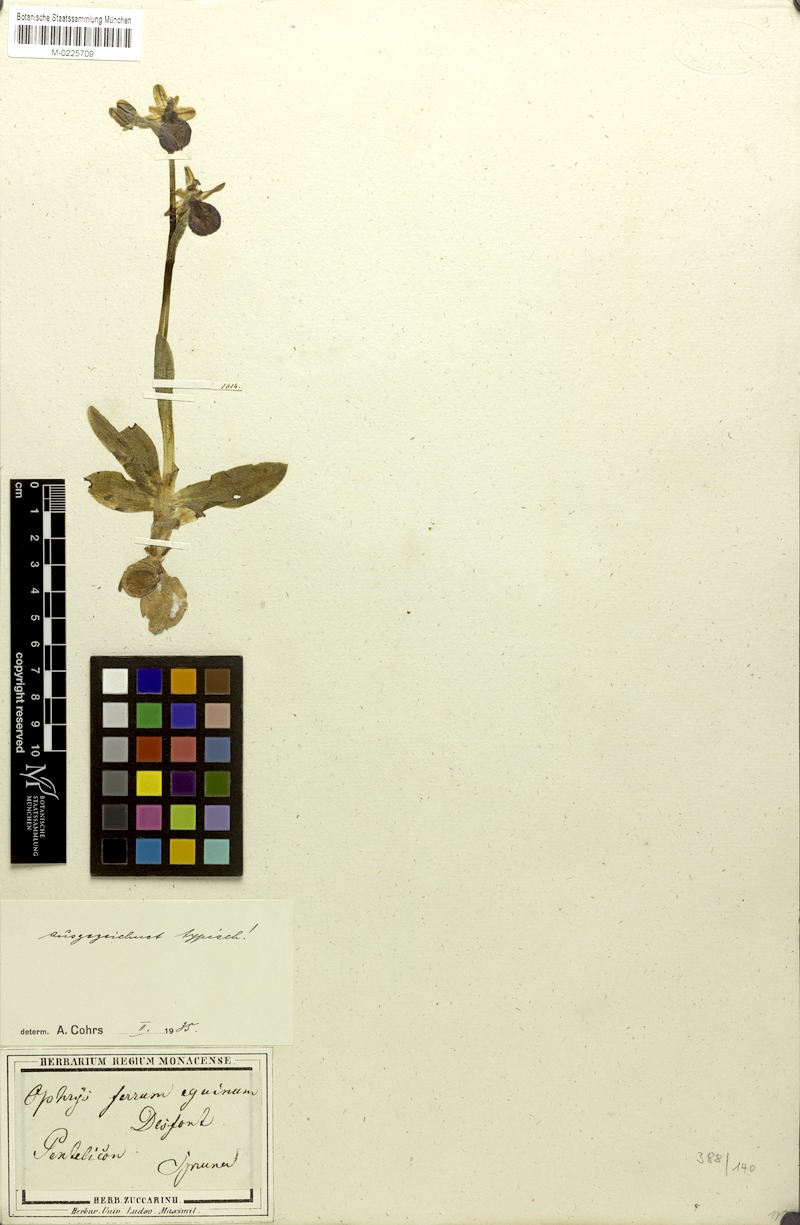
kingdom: Plantae
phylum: Tracheophyta
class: Liliopsida
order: Asparagales
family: Orchidaceae
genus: Ophrys
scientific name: Ophrys ferrum-equinum
